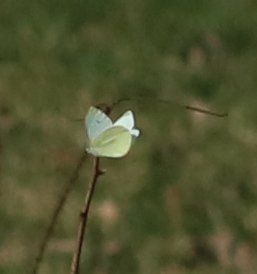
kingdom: Animalia
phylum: Arthropoda
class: Insecta
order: Lepidoptera
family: Pieridae
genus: Pieris
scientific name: Pieris rapae
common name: Cabbage White
